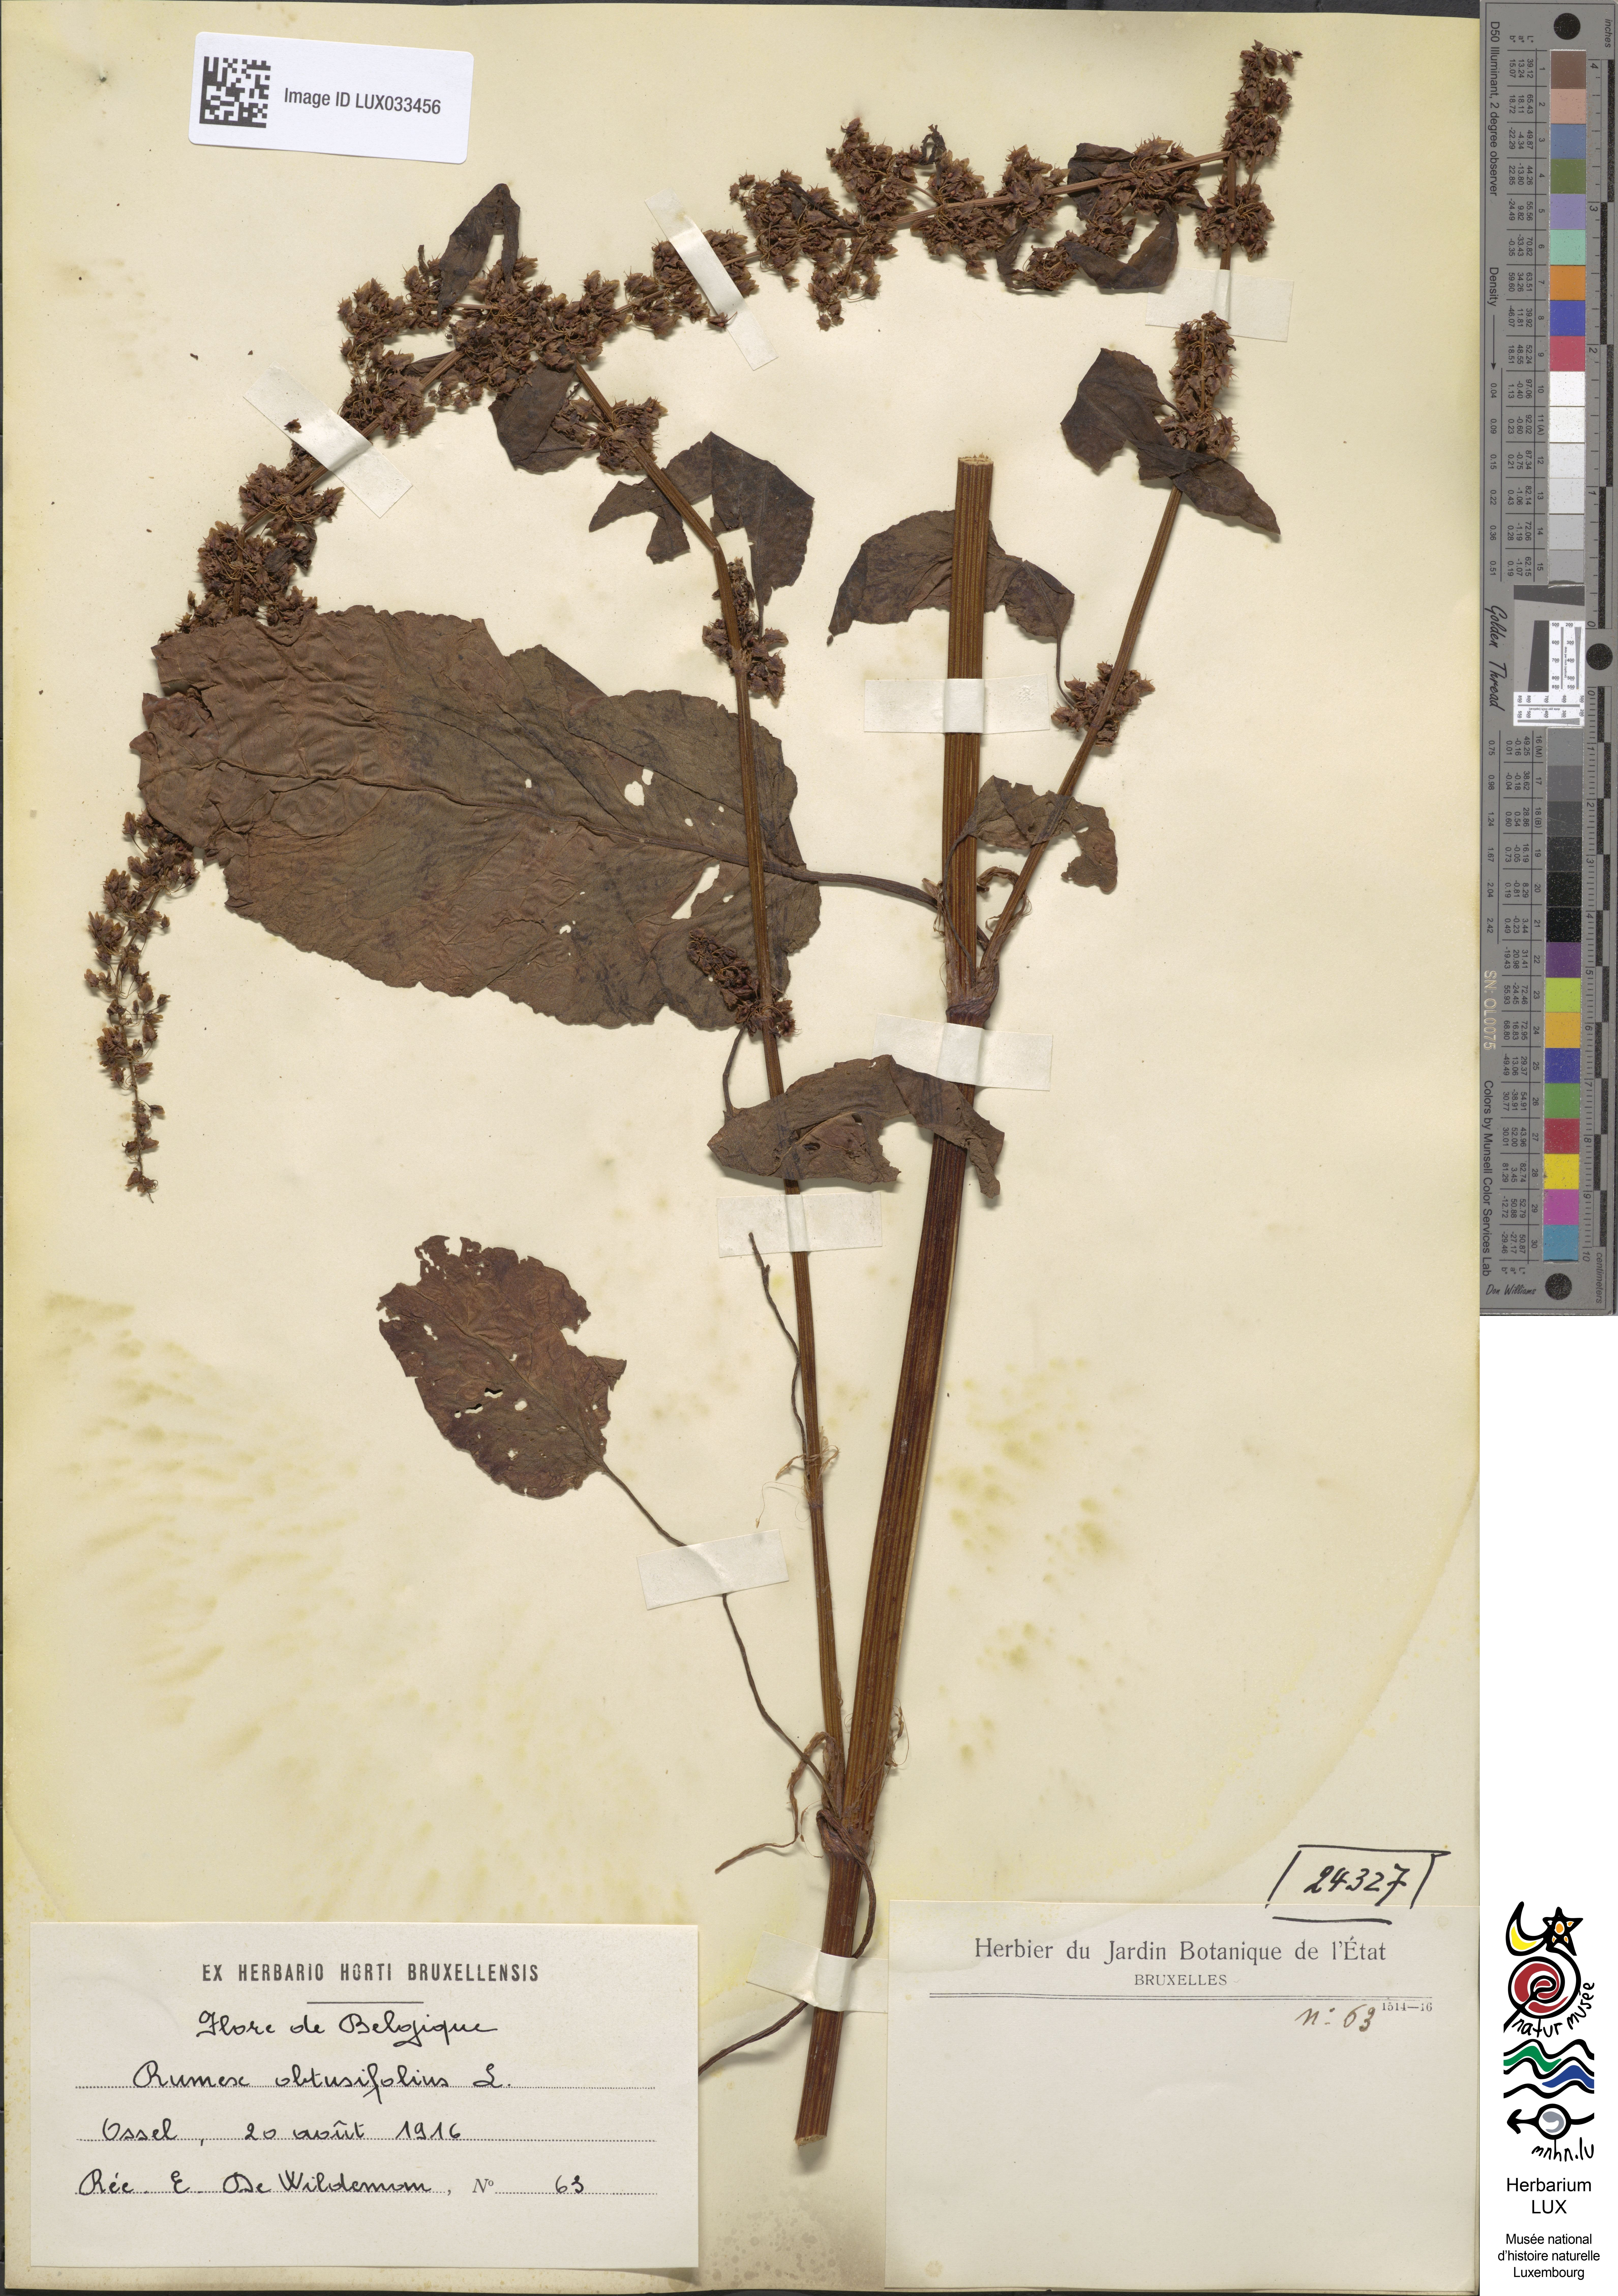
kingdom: Plantae
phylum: Tracheophyta
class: Magnoliopsida
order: Caryophyllales
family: Polygonaceae
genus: Rumex
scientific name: Rumex obtusifolius
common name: Bitter dock
